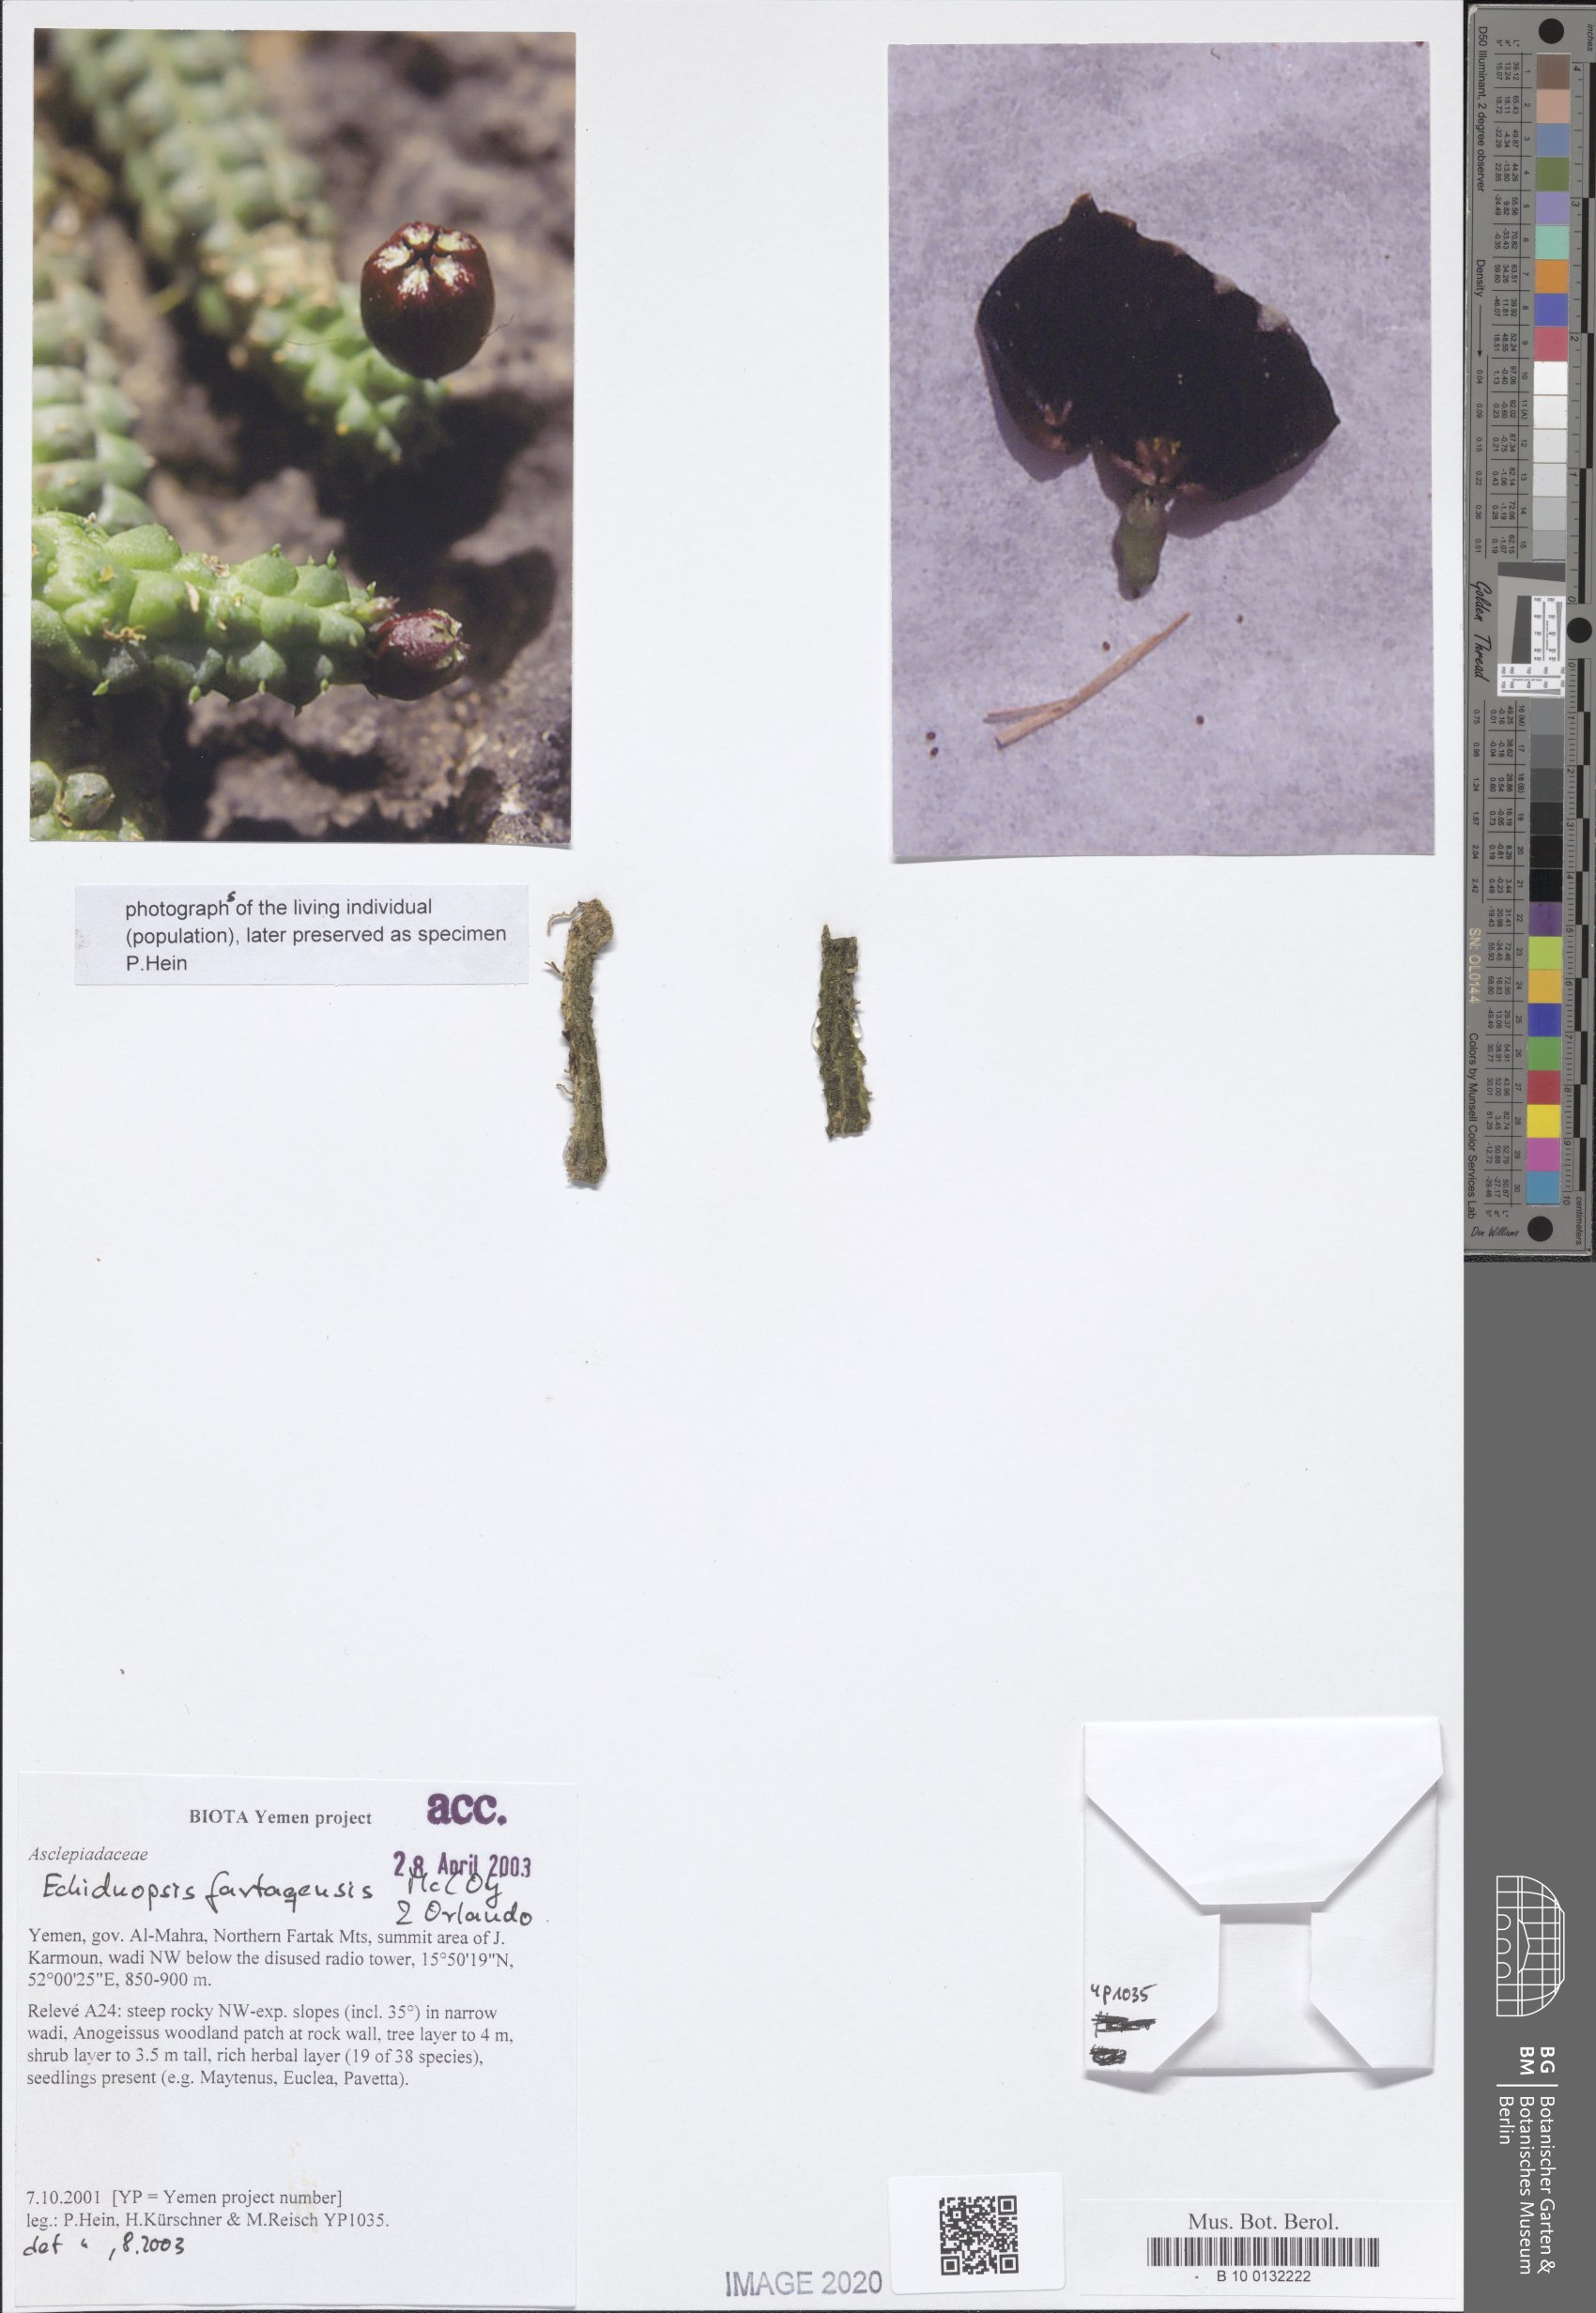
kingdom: Plantae
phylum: Tracheophyta
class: Magnoliopsida
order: Gentianales
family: Apocynaceae
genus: Ceropegia
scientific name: Ceropegia globosa
